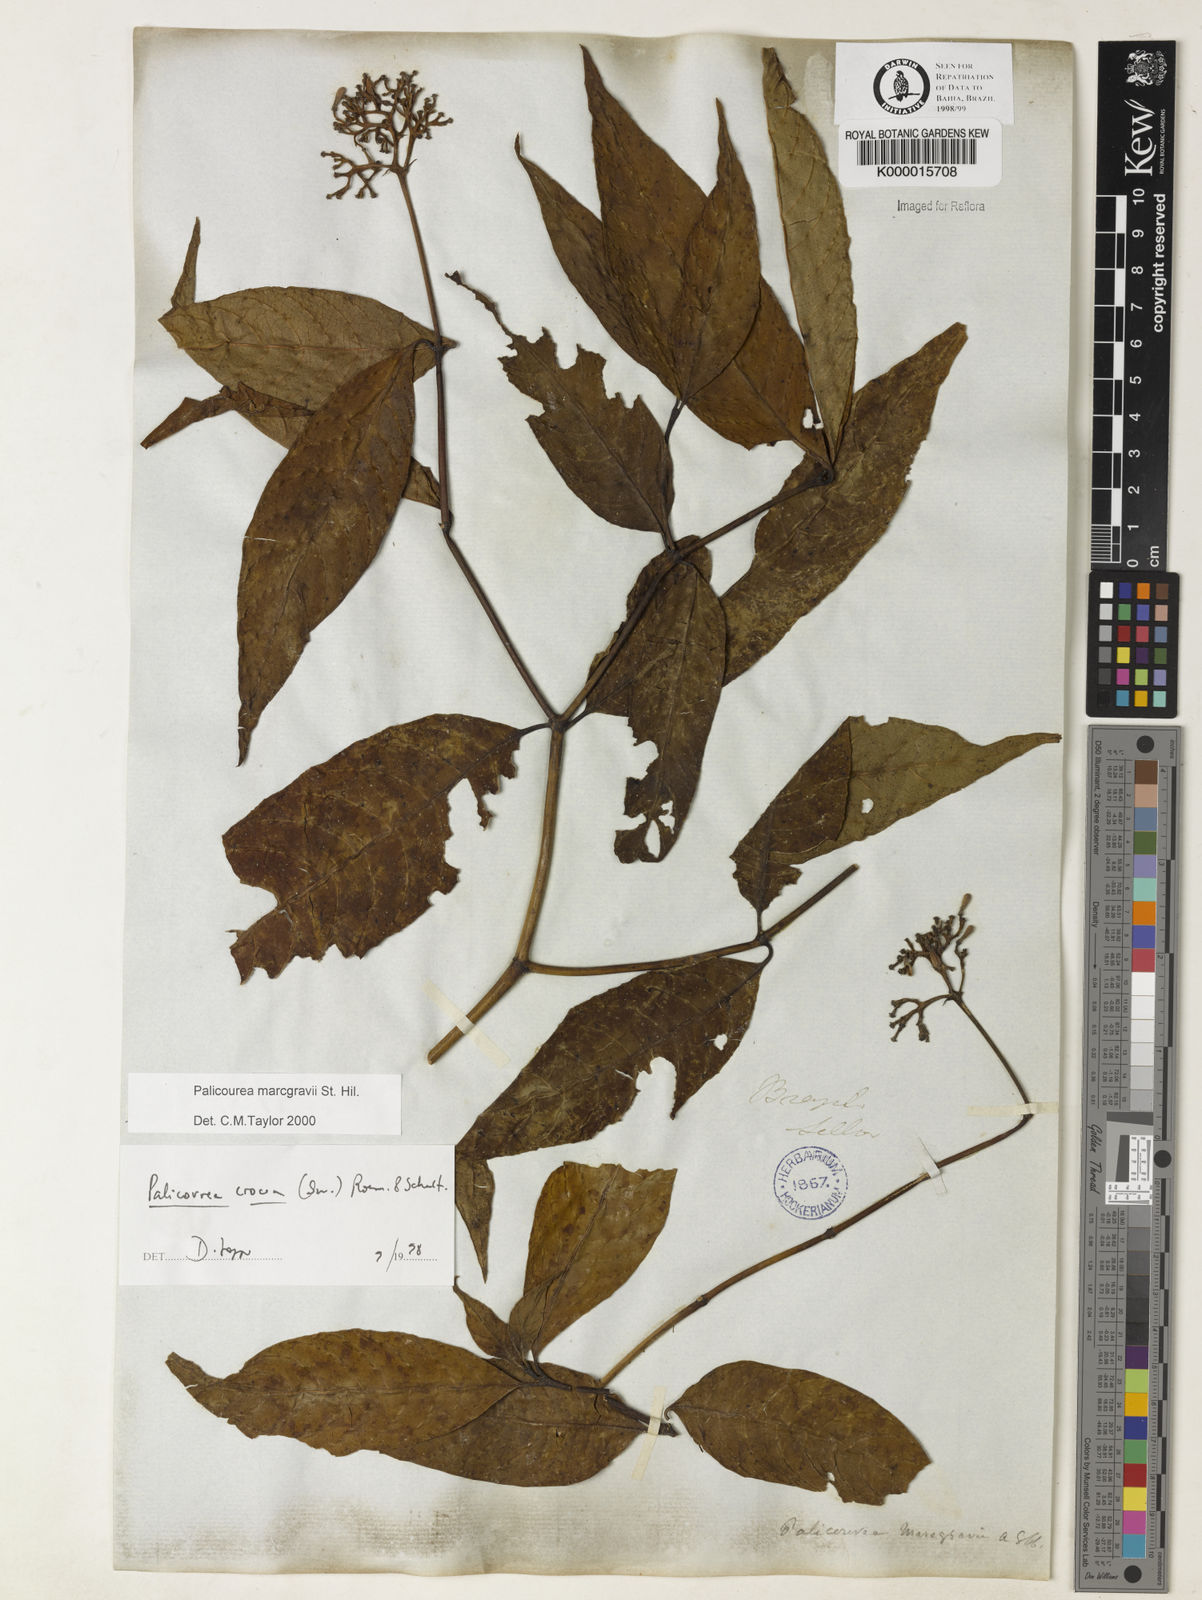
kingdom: Plantae
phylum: Tracheophyta
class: Magnoliopsida
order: Gentianales
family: Rubiaceae
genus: Palicourea
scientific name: Palicourea marcgravii
